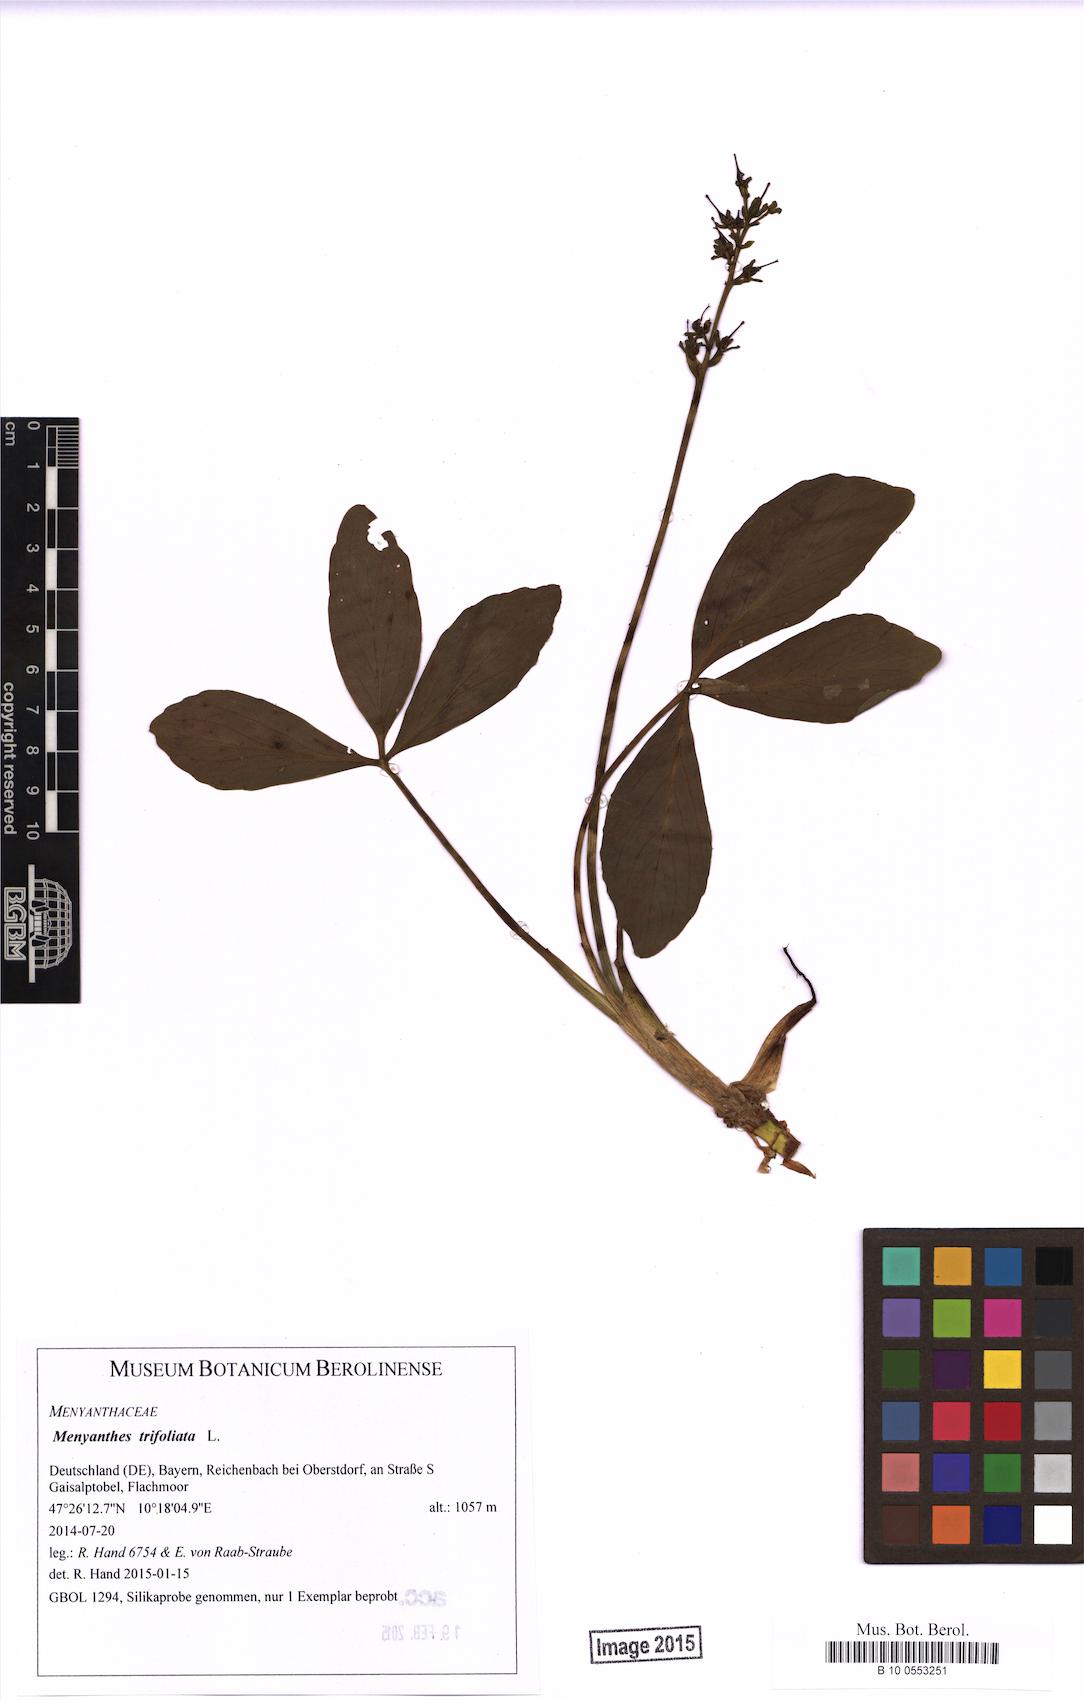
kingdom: Plantae
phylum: Tracheophyta
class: Magnoliopsida
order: Asterales
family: Menyanthaceae
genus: Menyanthes
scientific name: Menyanthes trifoliata
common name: Bogbean
